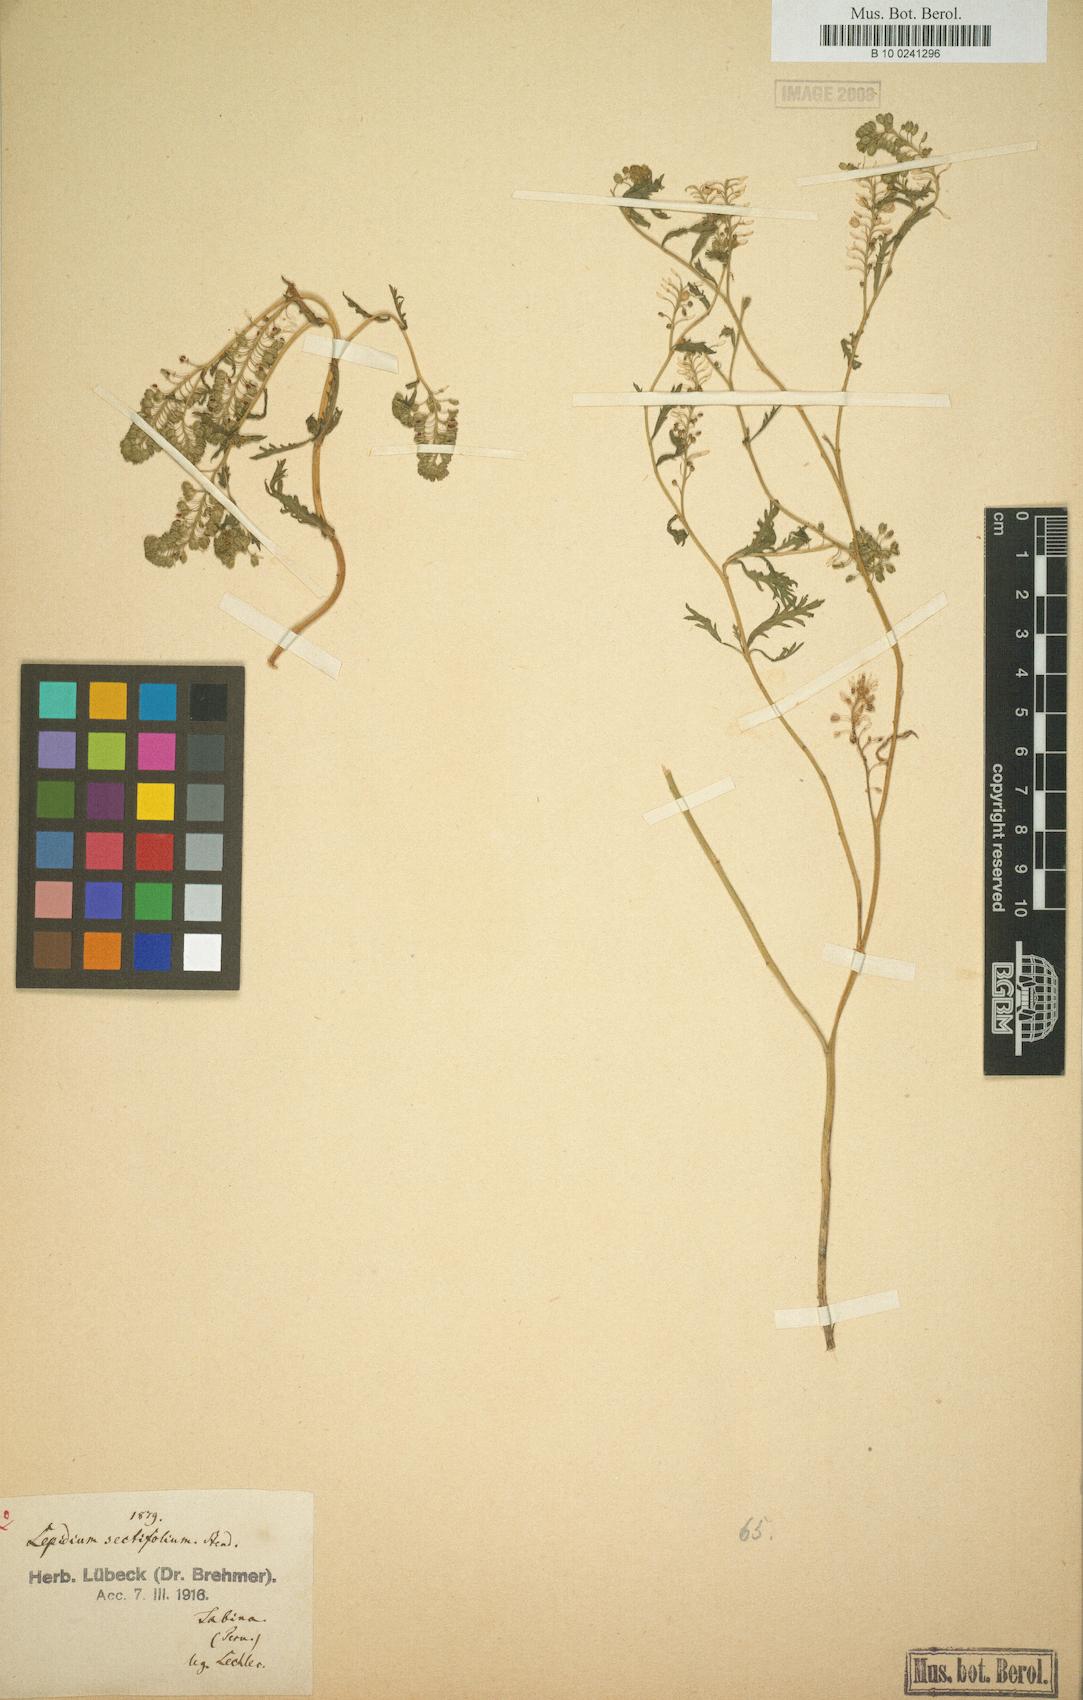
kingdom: Plantae
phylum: Tracheophyta
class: Magnoliopsida
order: Brassicales
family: Brassicaceae
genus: Lepidium
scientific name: Lepidium bipinnatifidum
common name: Wayside pepperwort
